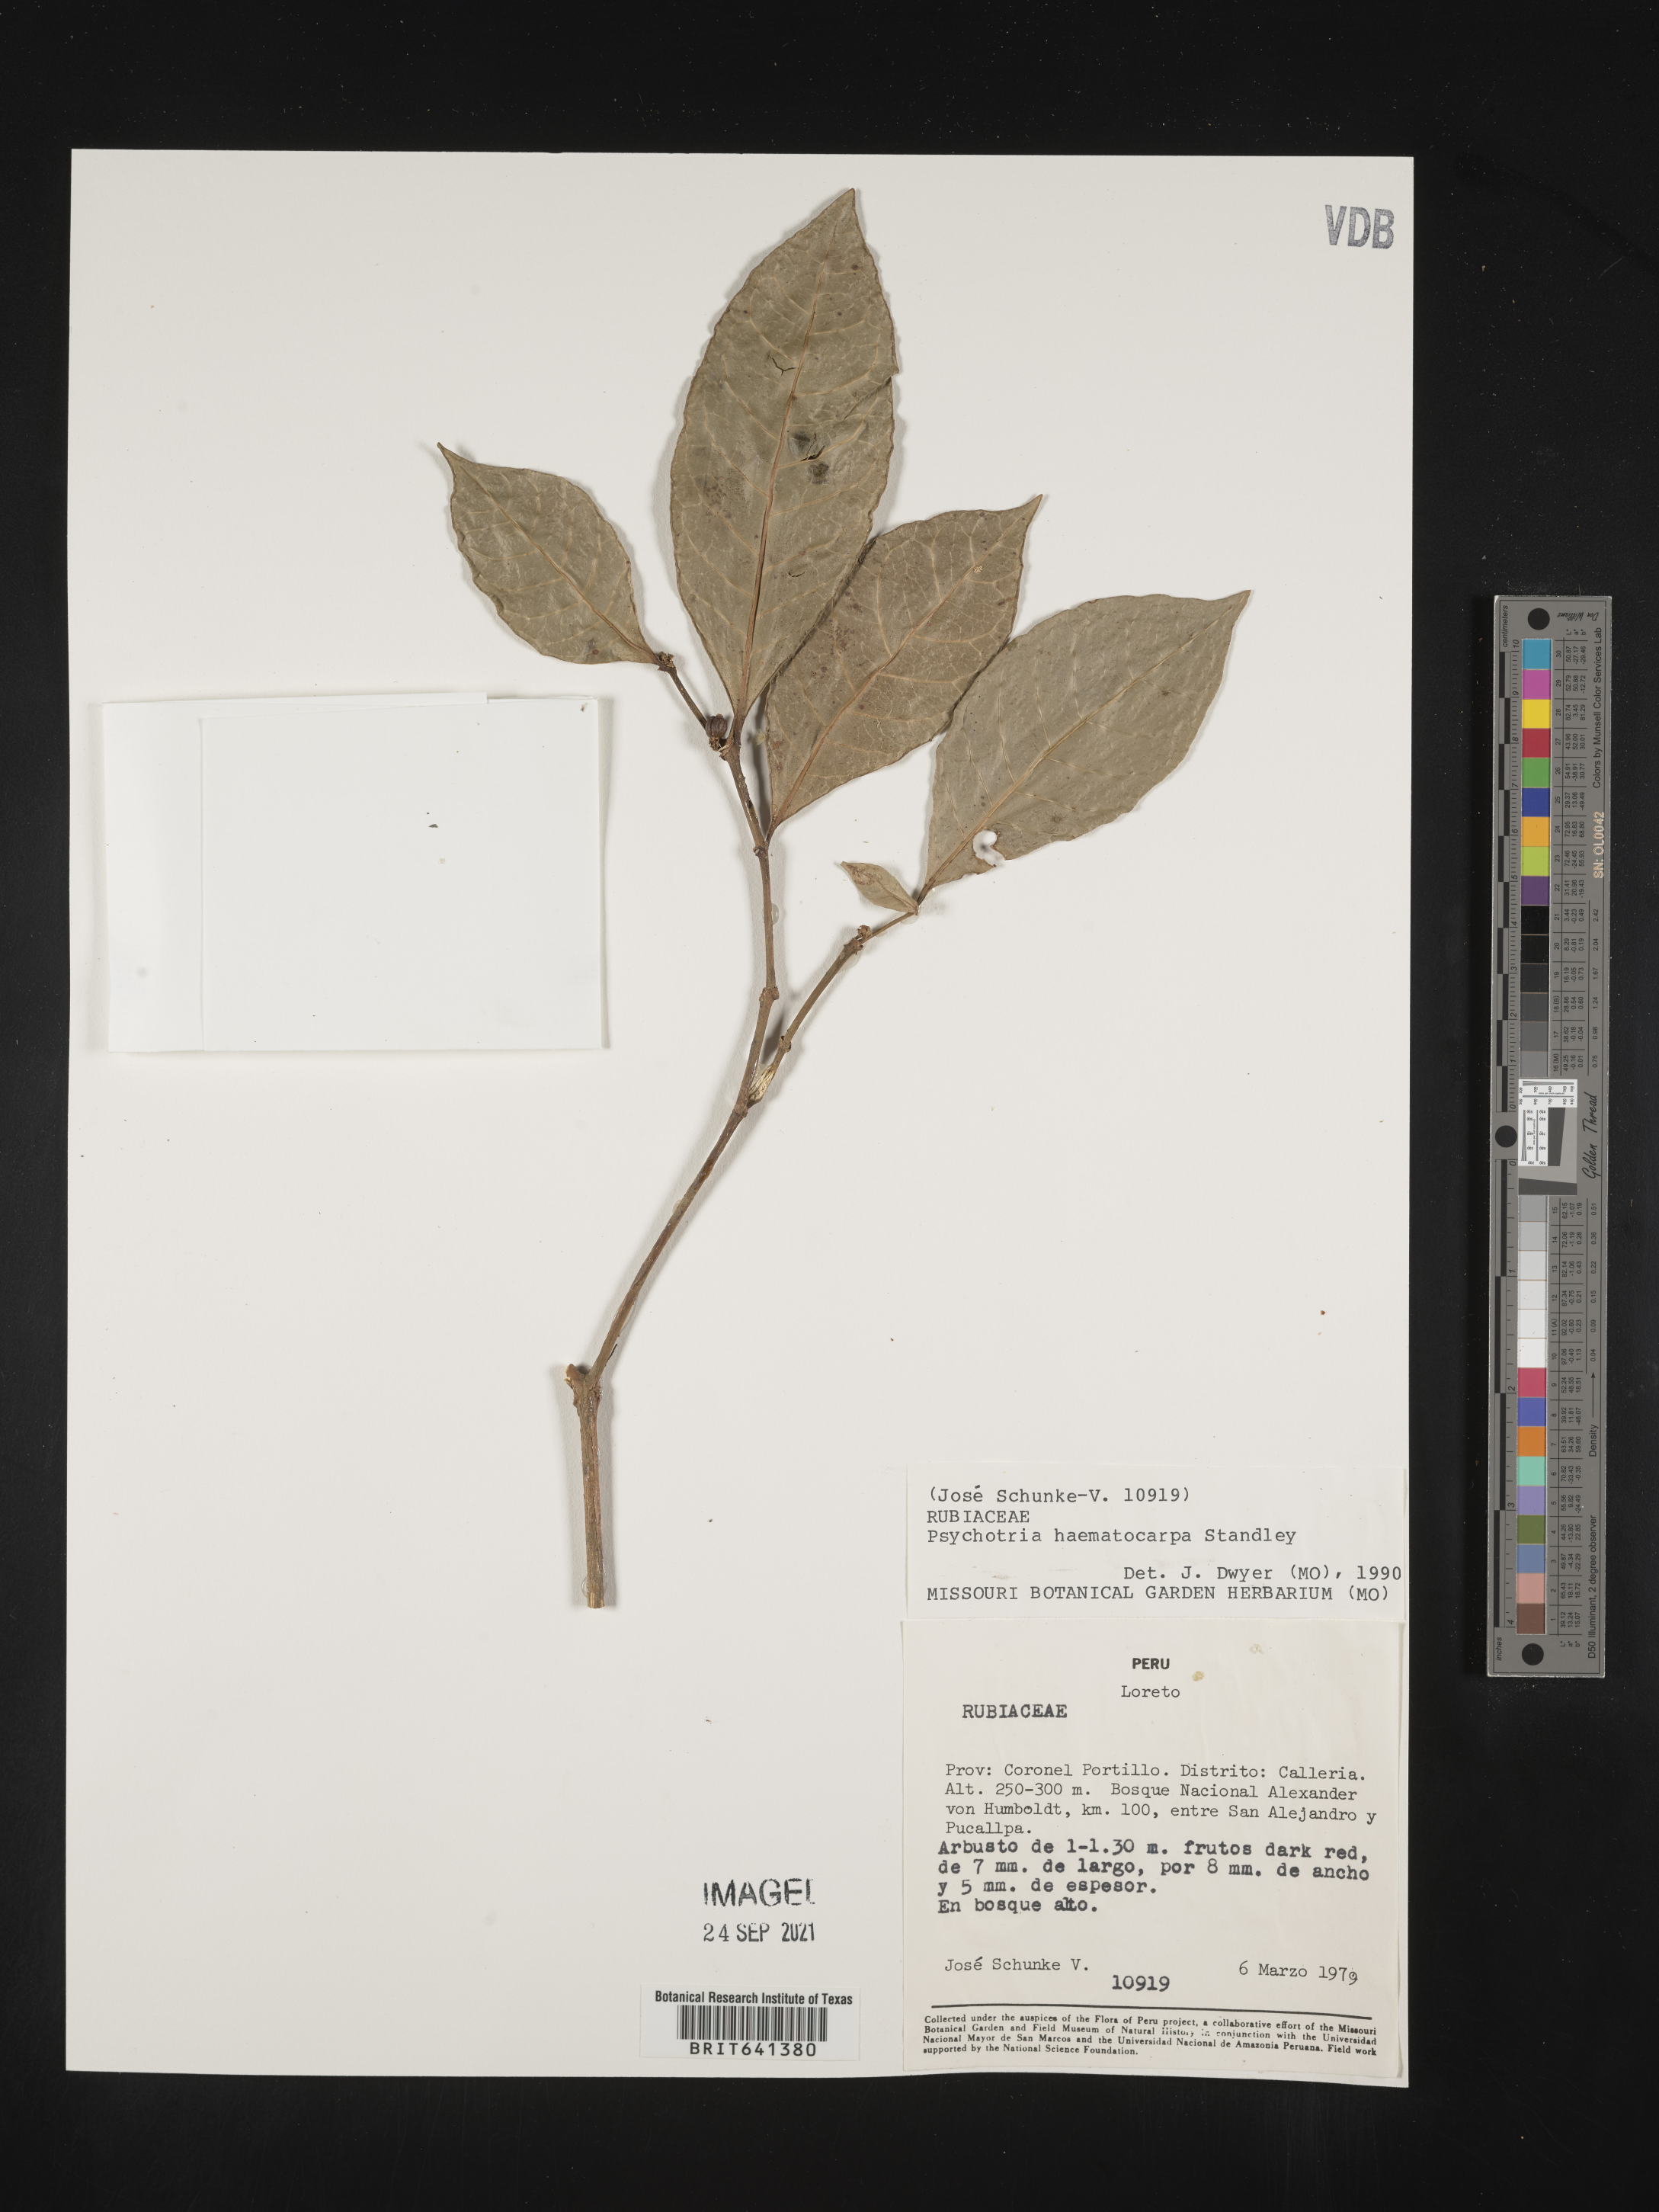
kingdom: Plantae
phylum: Tracheophyta
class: Magnoliopsida
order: Gentianales
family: Rubiaceae
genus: Psychotria
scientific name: Psychotria
